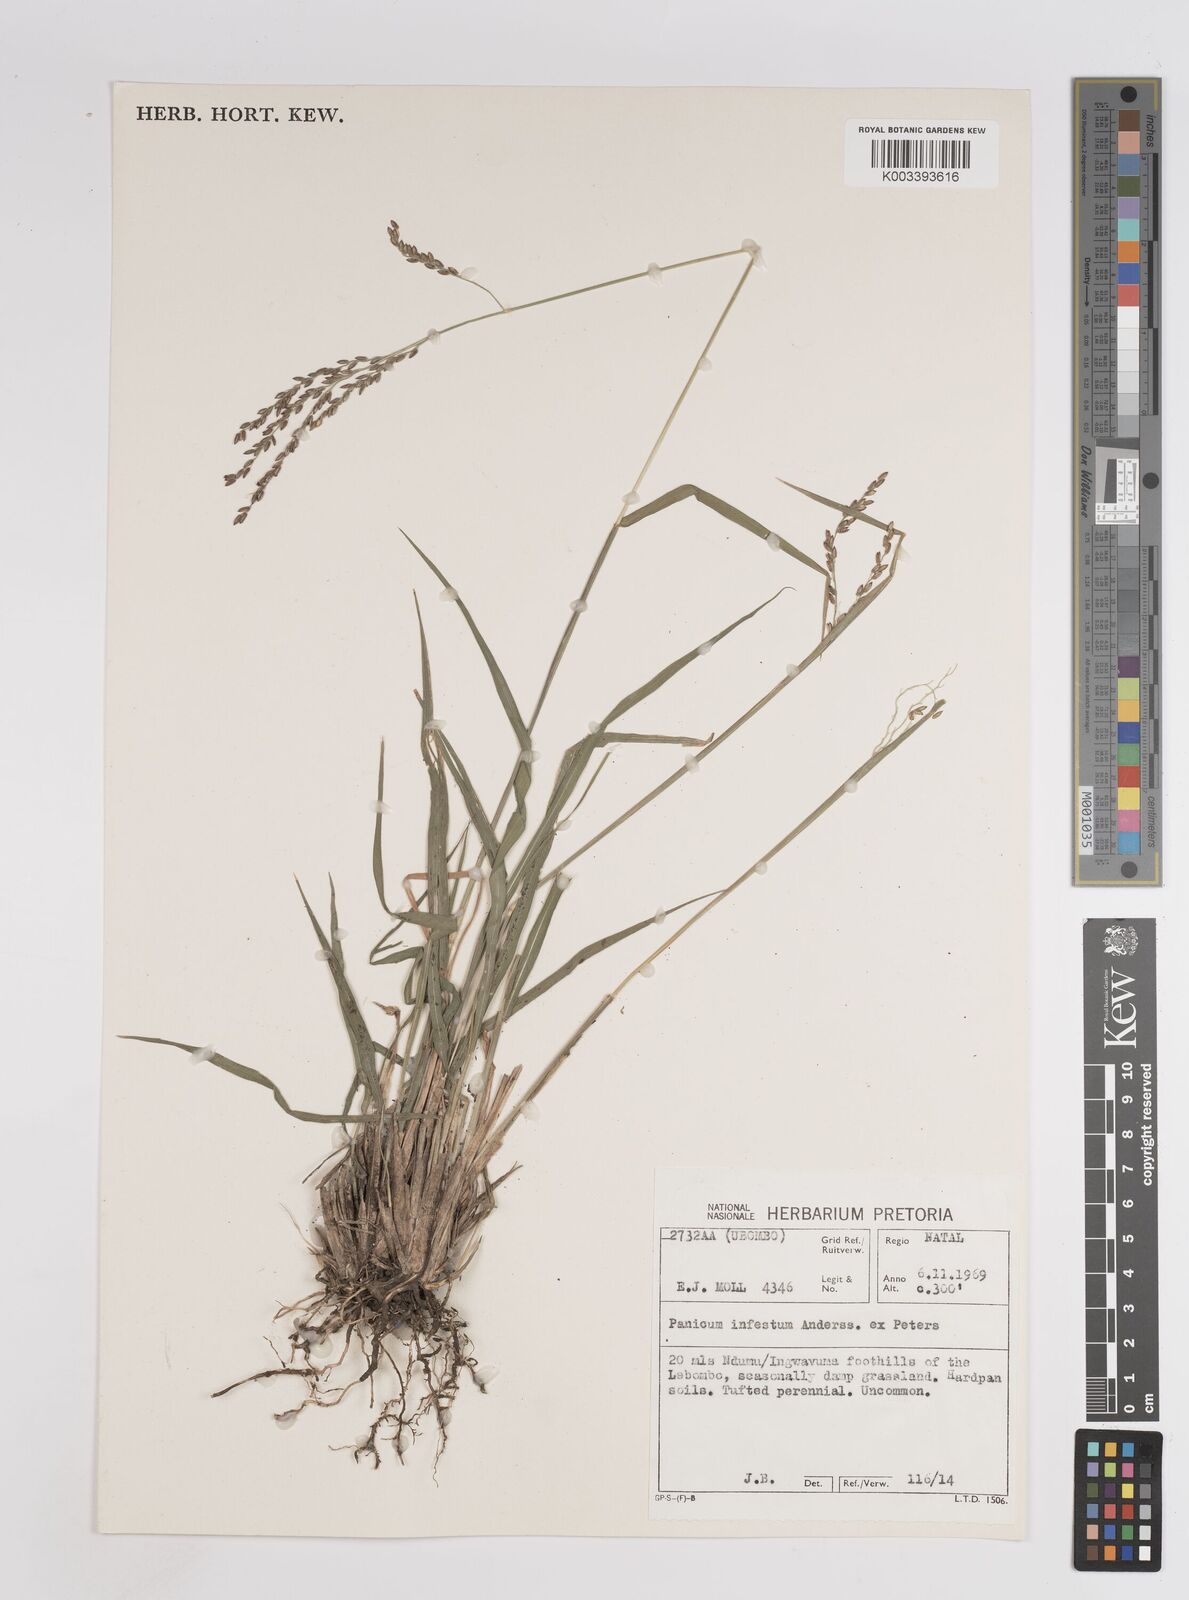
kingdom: Plantae
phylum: Tracheophyta
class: Liliopsida
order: Poales
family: Poaceae
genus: Megathyrsus
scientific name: Megathyrsus infestus
